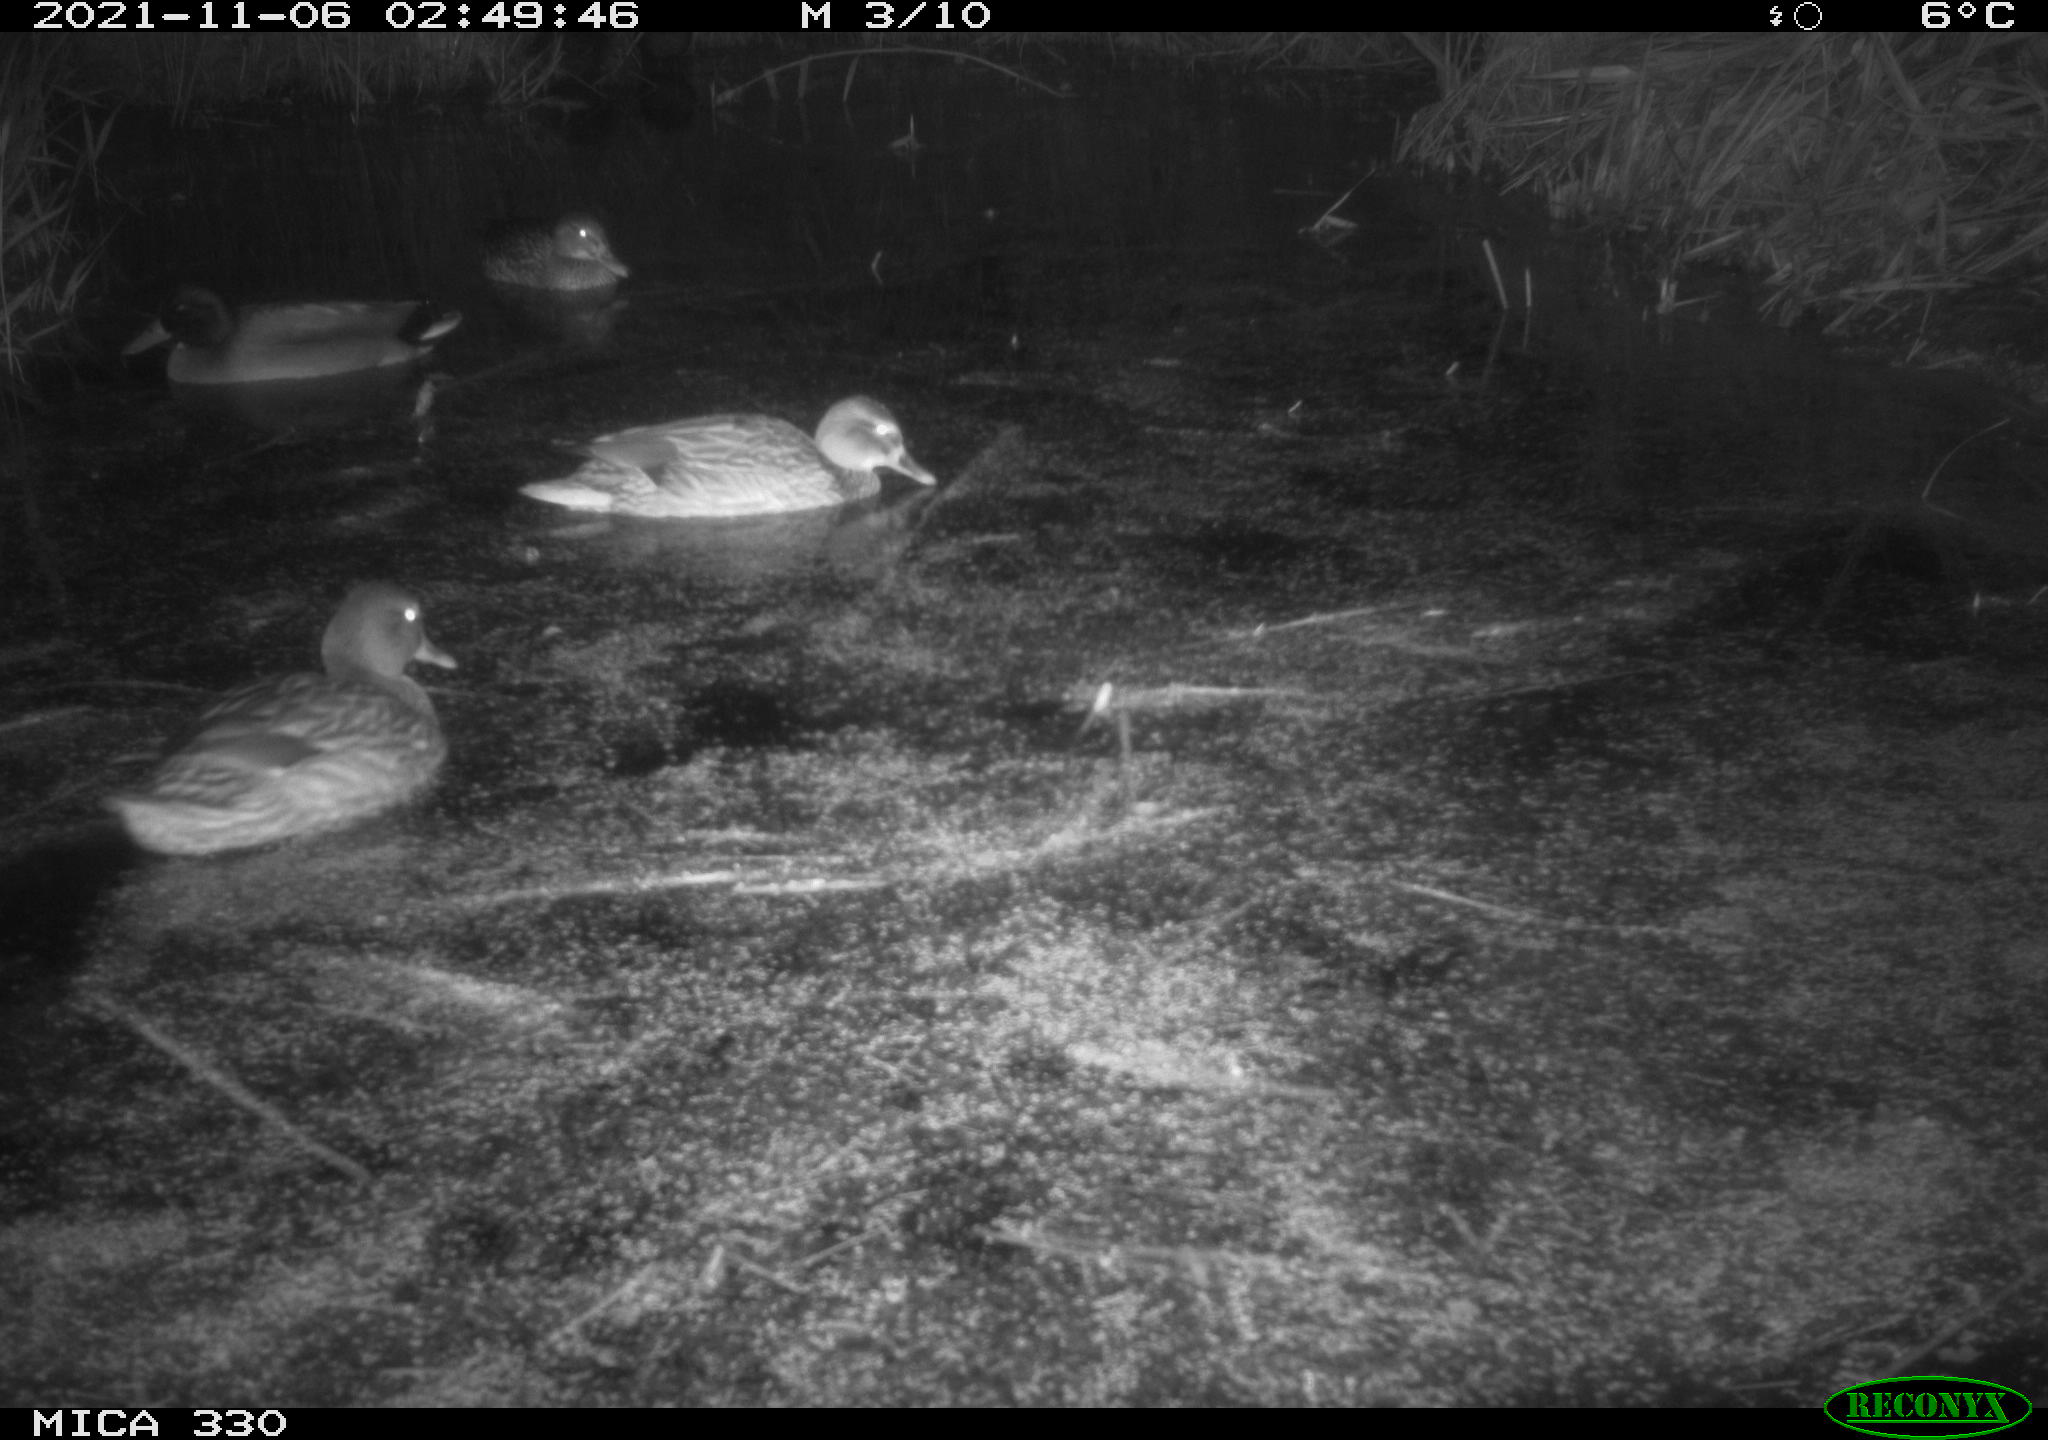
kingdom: Animalia
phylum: Chordata
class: Aves
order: Anseriformes
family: Anatidae
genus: Anas
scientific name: Anas platyrhynchos
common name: Mallard
